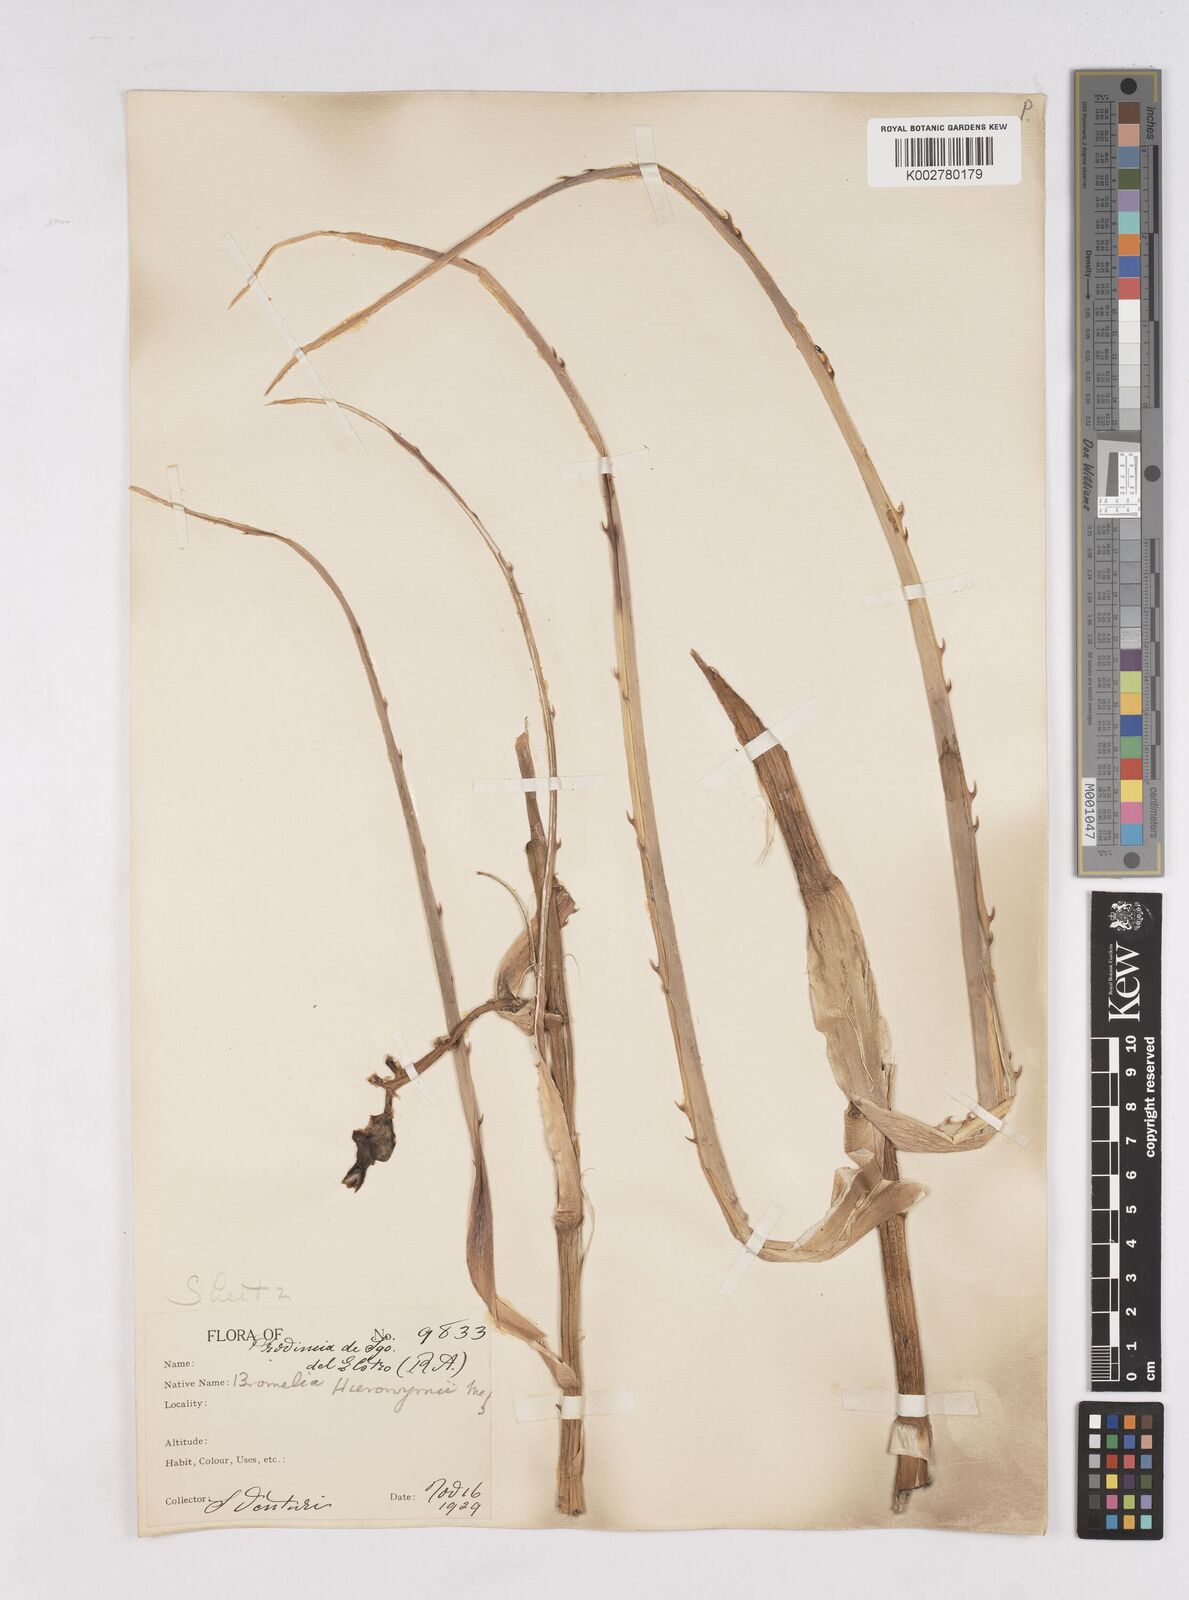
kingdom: Plantae
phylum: Tracheophyta
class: Liliopsida
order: Poales
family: Bromeliaceae
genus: Bromelia
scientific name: Bromelia hieronymi
